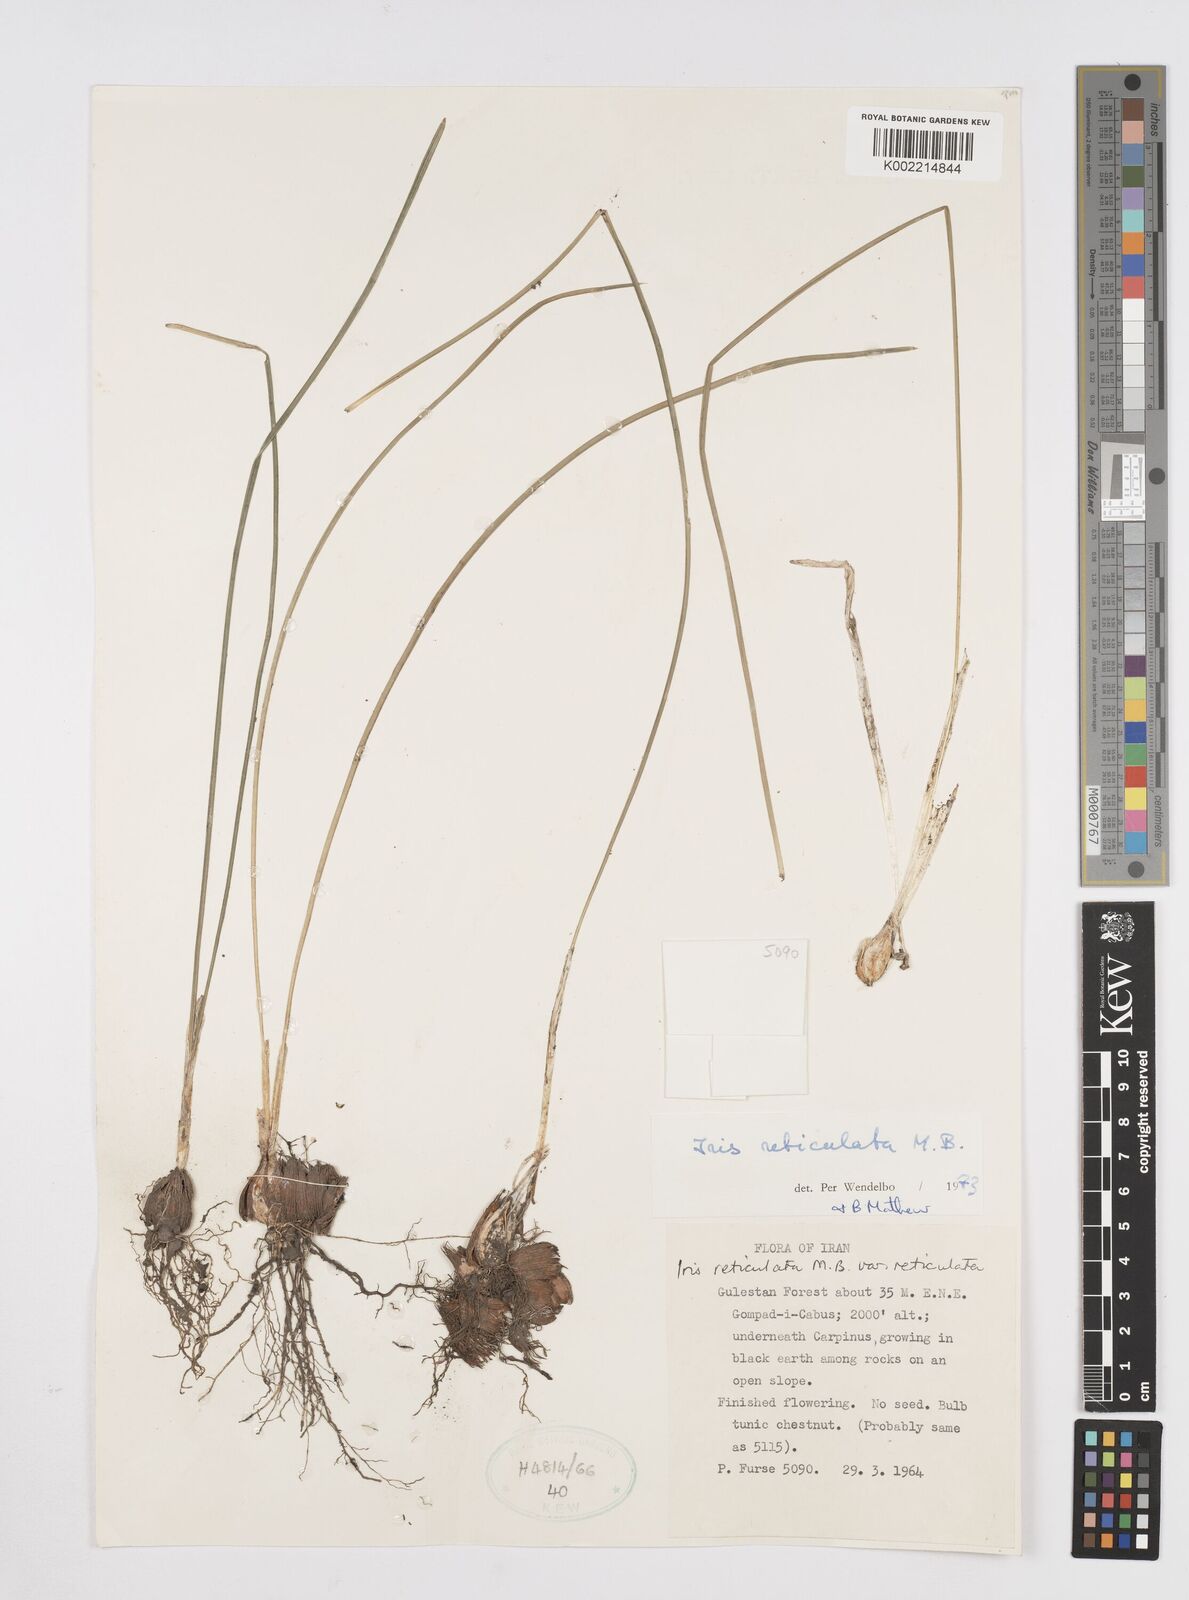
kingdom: Plantae
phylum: Tracheophyta
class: Liliopsida
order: Asparagales
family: Iridaceae
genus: Iris
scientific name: Iris reticulata
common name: Netted iris
